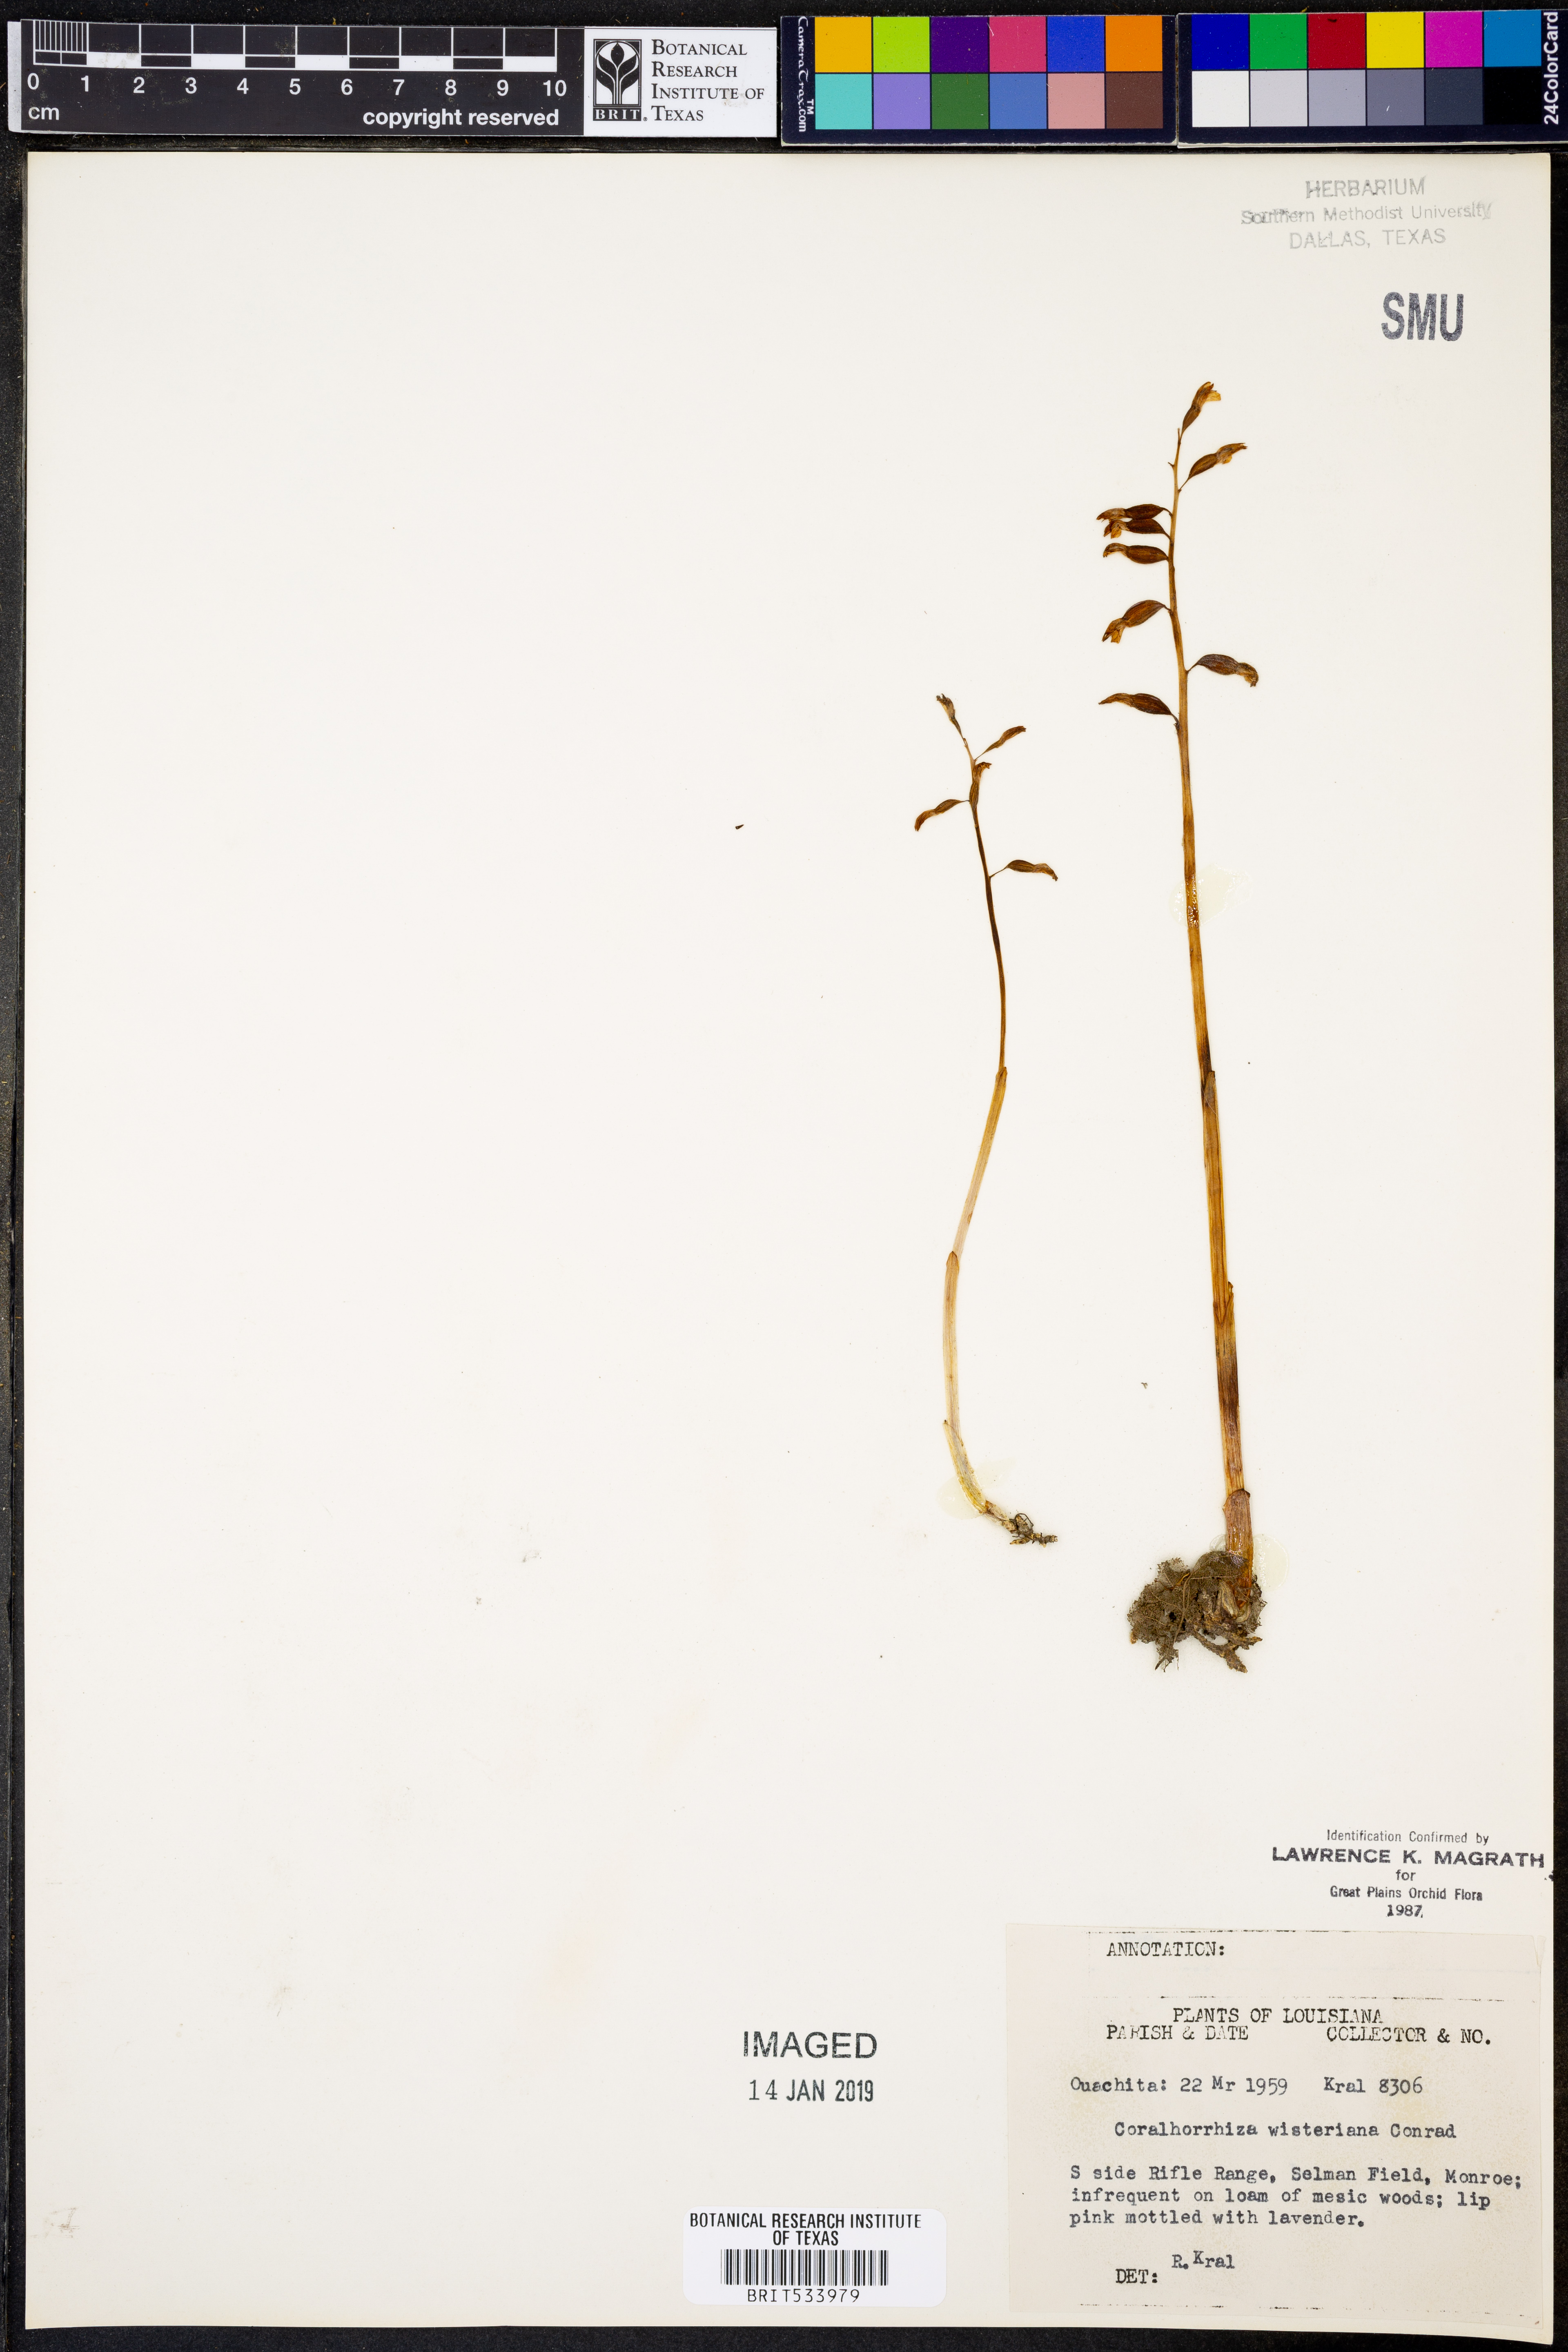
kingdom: Plantae
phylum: Tracheophyta
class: Liliopsida
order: Asparagales
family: Orchidaceae
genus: Corallorhiza
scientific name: Corallorhiza wisteriana
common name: Spring coralroot
